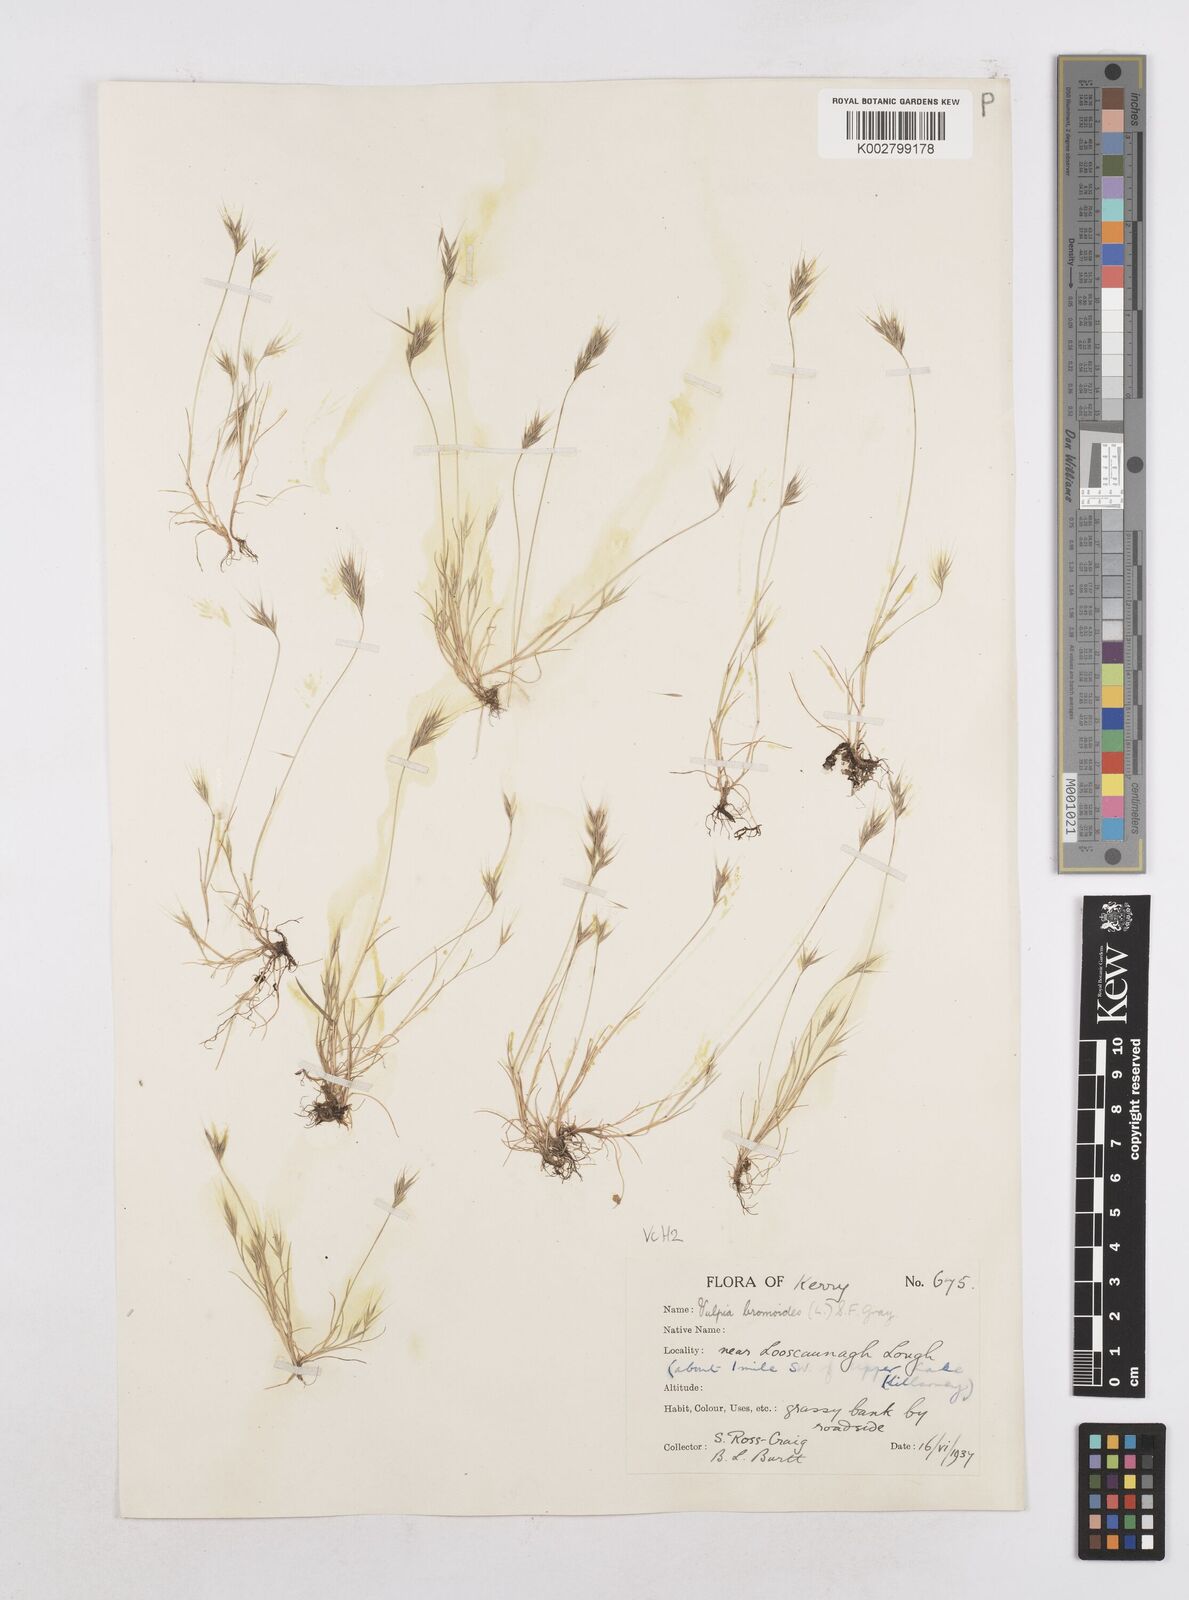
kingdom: Plantae
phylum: Tracheophyta
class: Liliopsida
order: Poales
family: Poaceae
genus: Festuca
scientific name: Festuca bromoides
